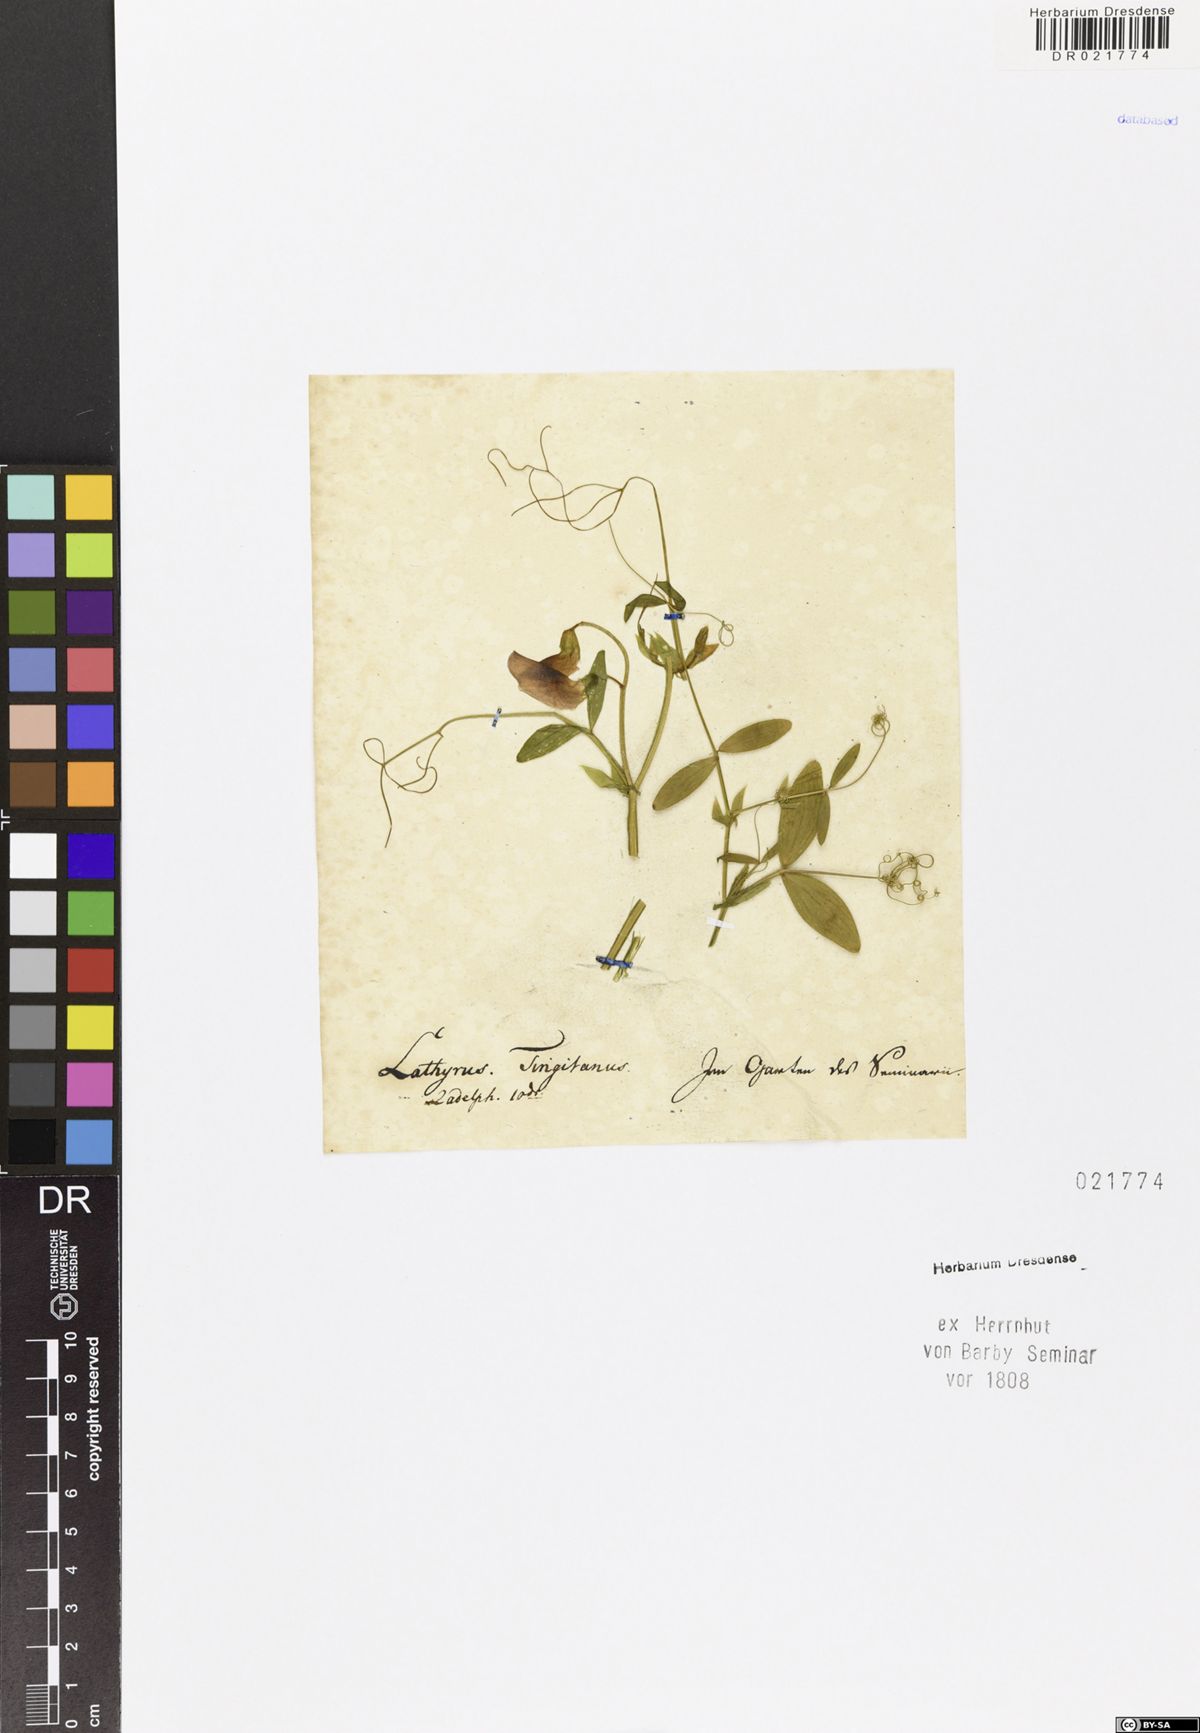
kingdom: Plantae
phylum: Tracheophyta
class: Magnoliopsida
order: Fabales
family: Fabaceae
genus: Lathyrus
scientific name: Lathyrus tingitanus
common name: Tangier pea
